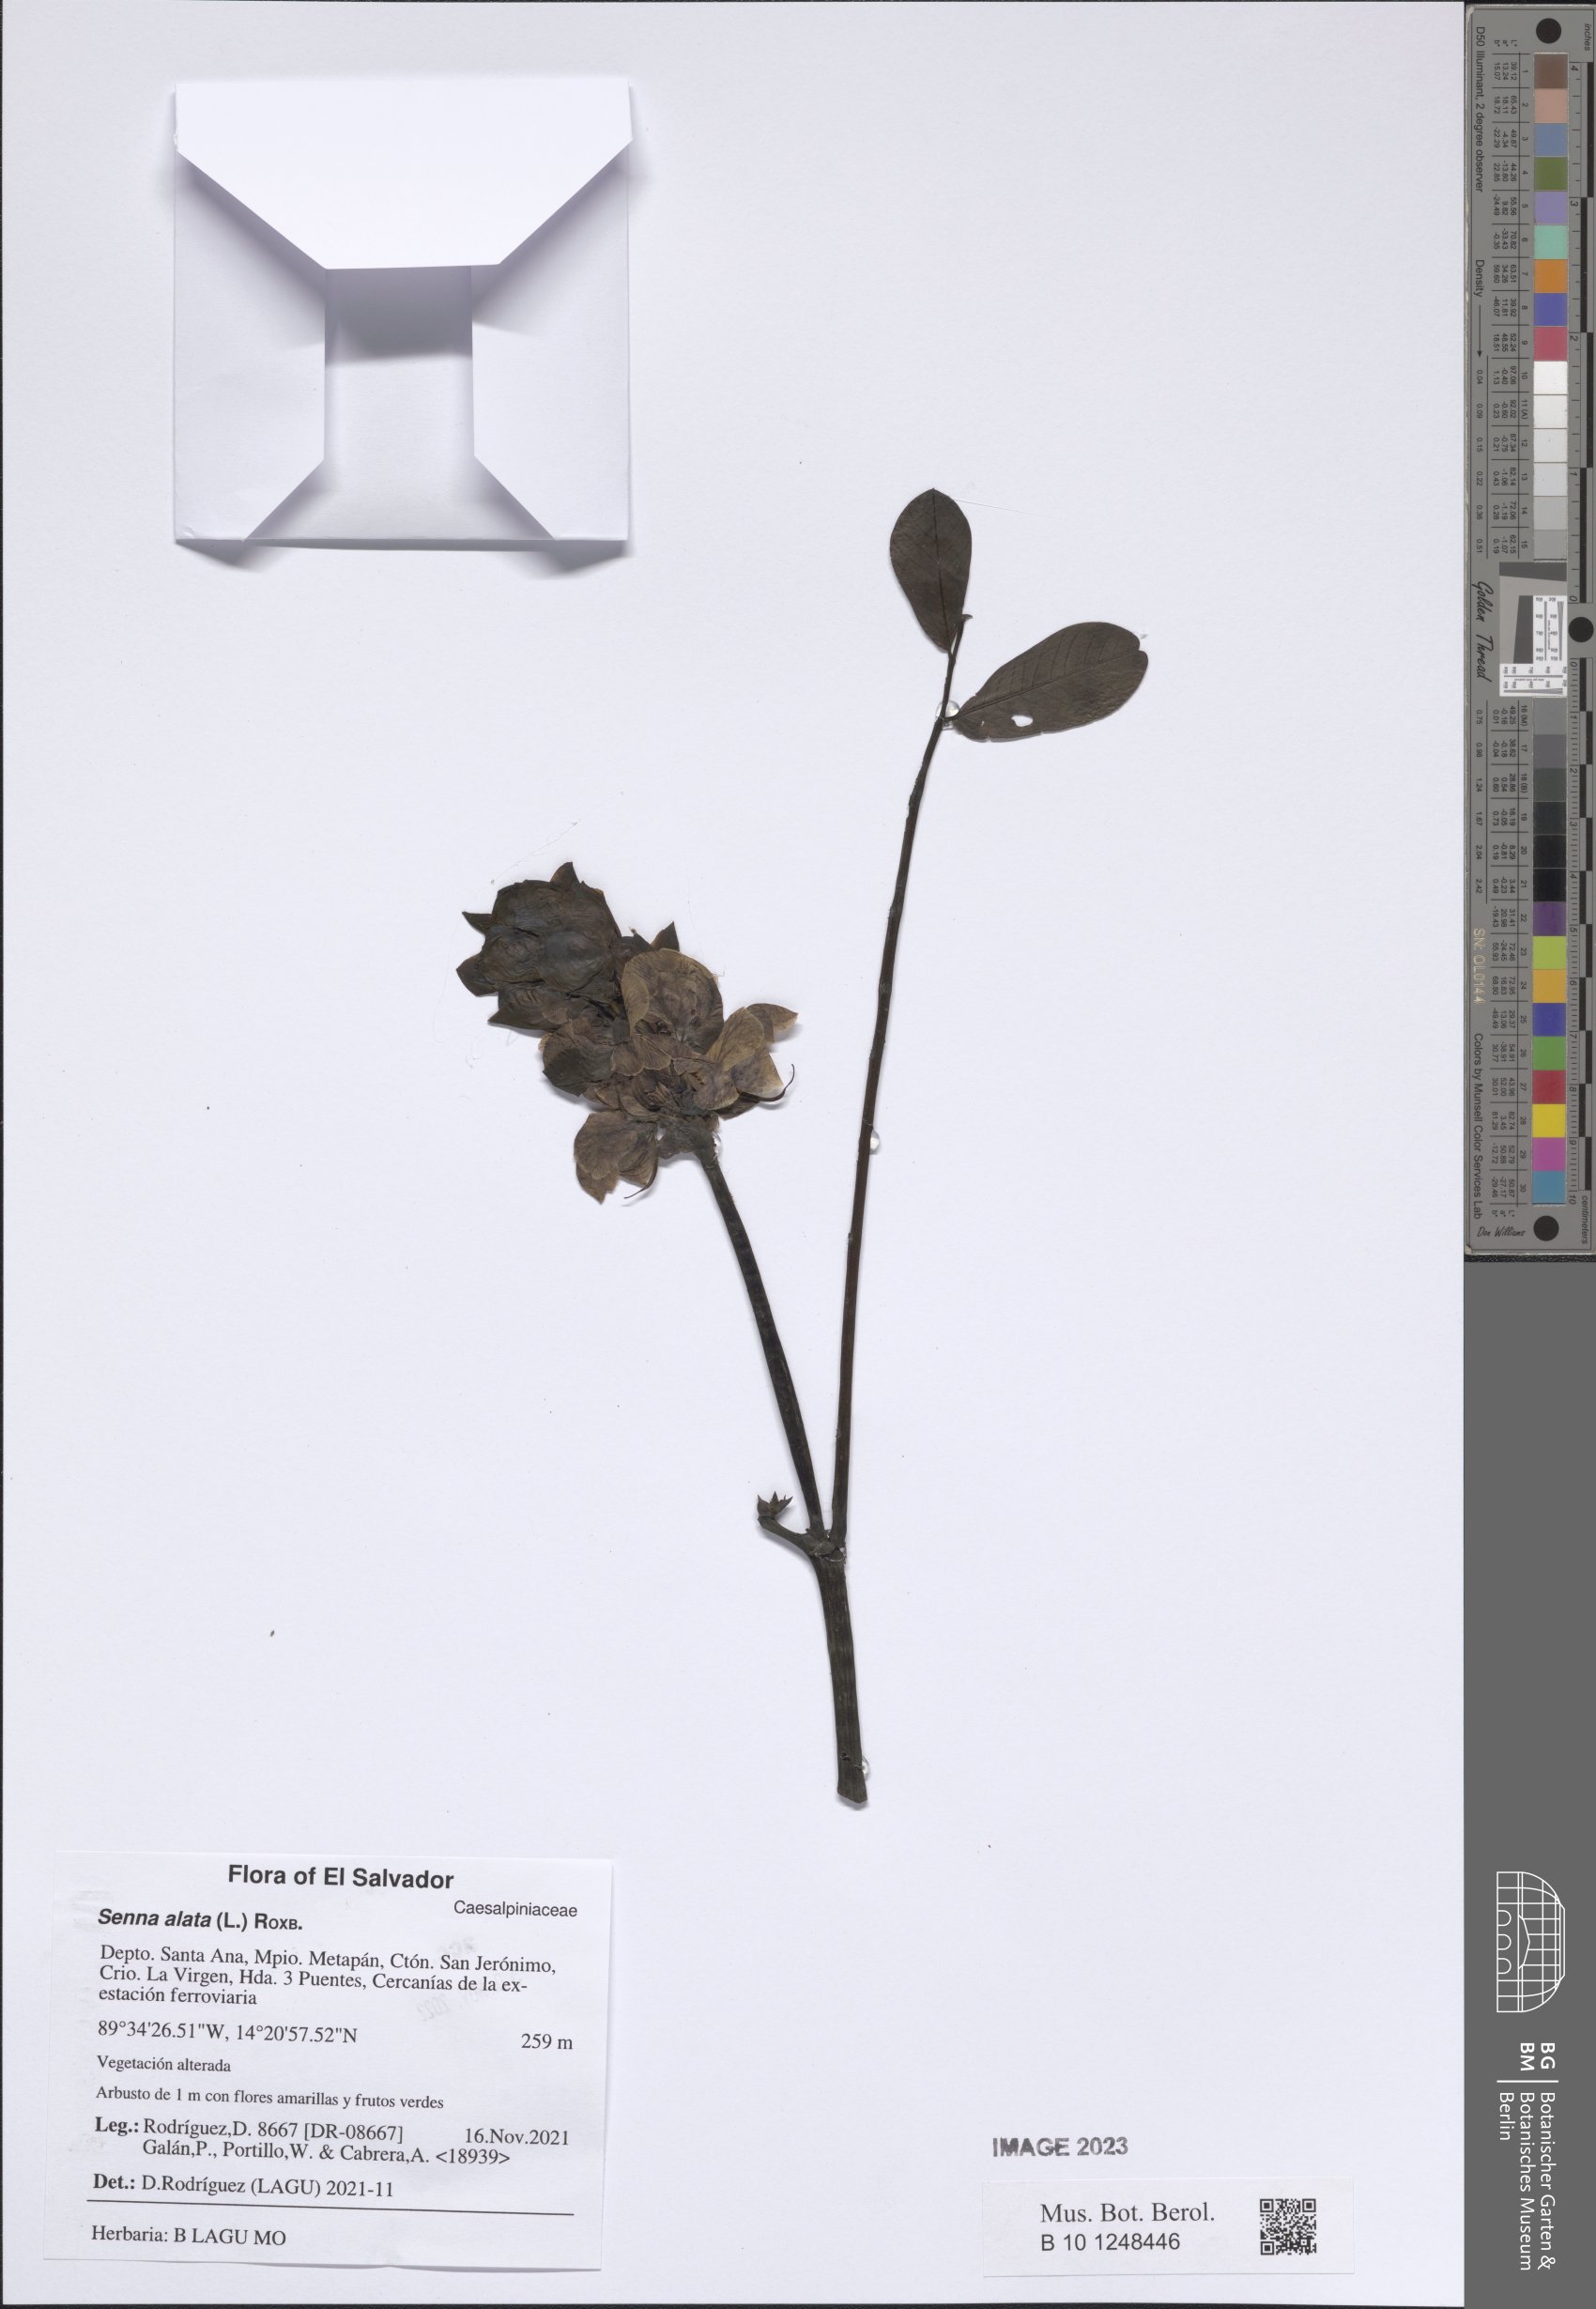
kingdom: Plantae
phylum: Tracheophyta
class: Magnoliopsida
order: Fabales
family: Fabaceae
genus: Senna
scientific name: Senna alata
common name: Emperor's candlesticks
